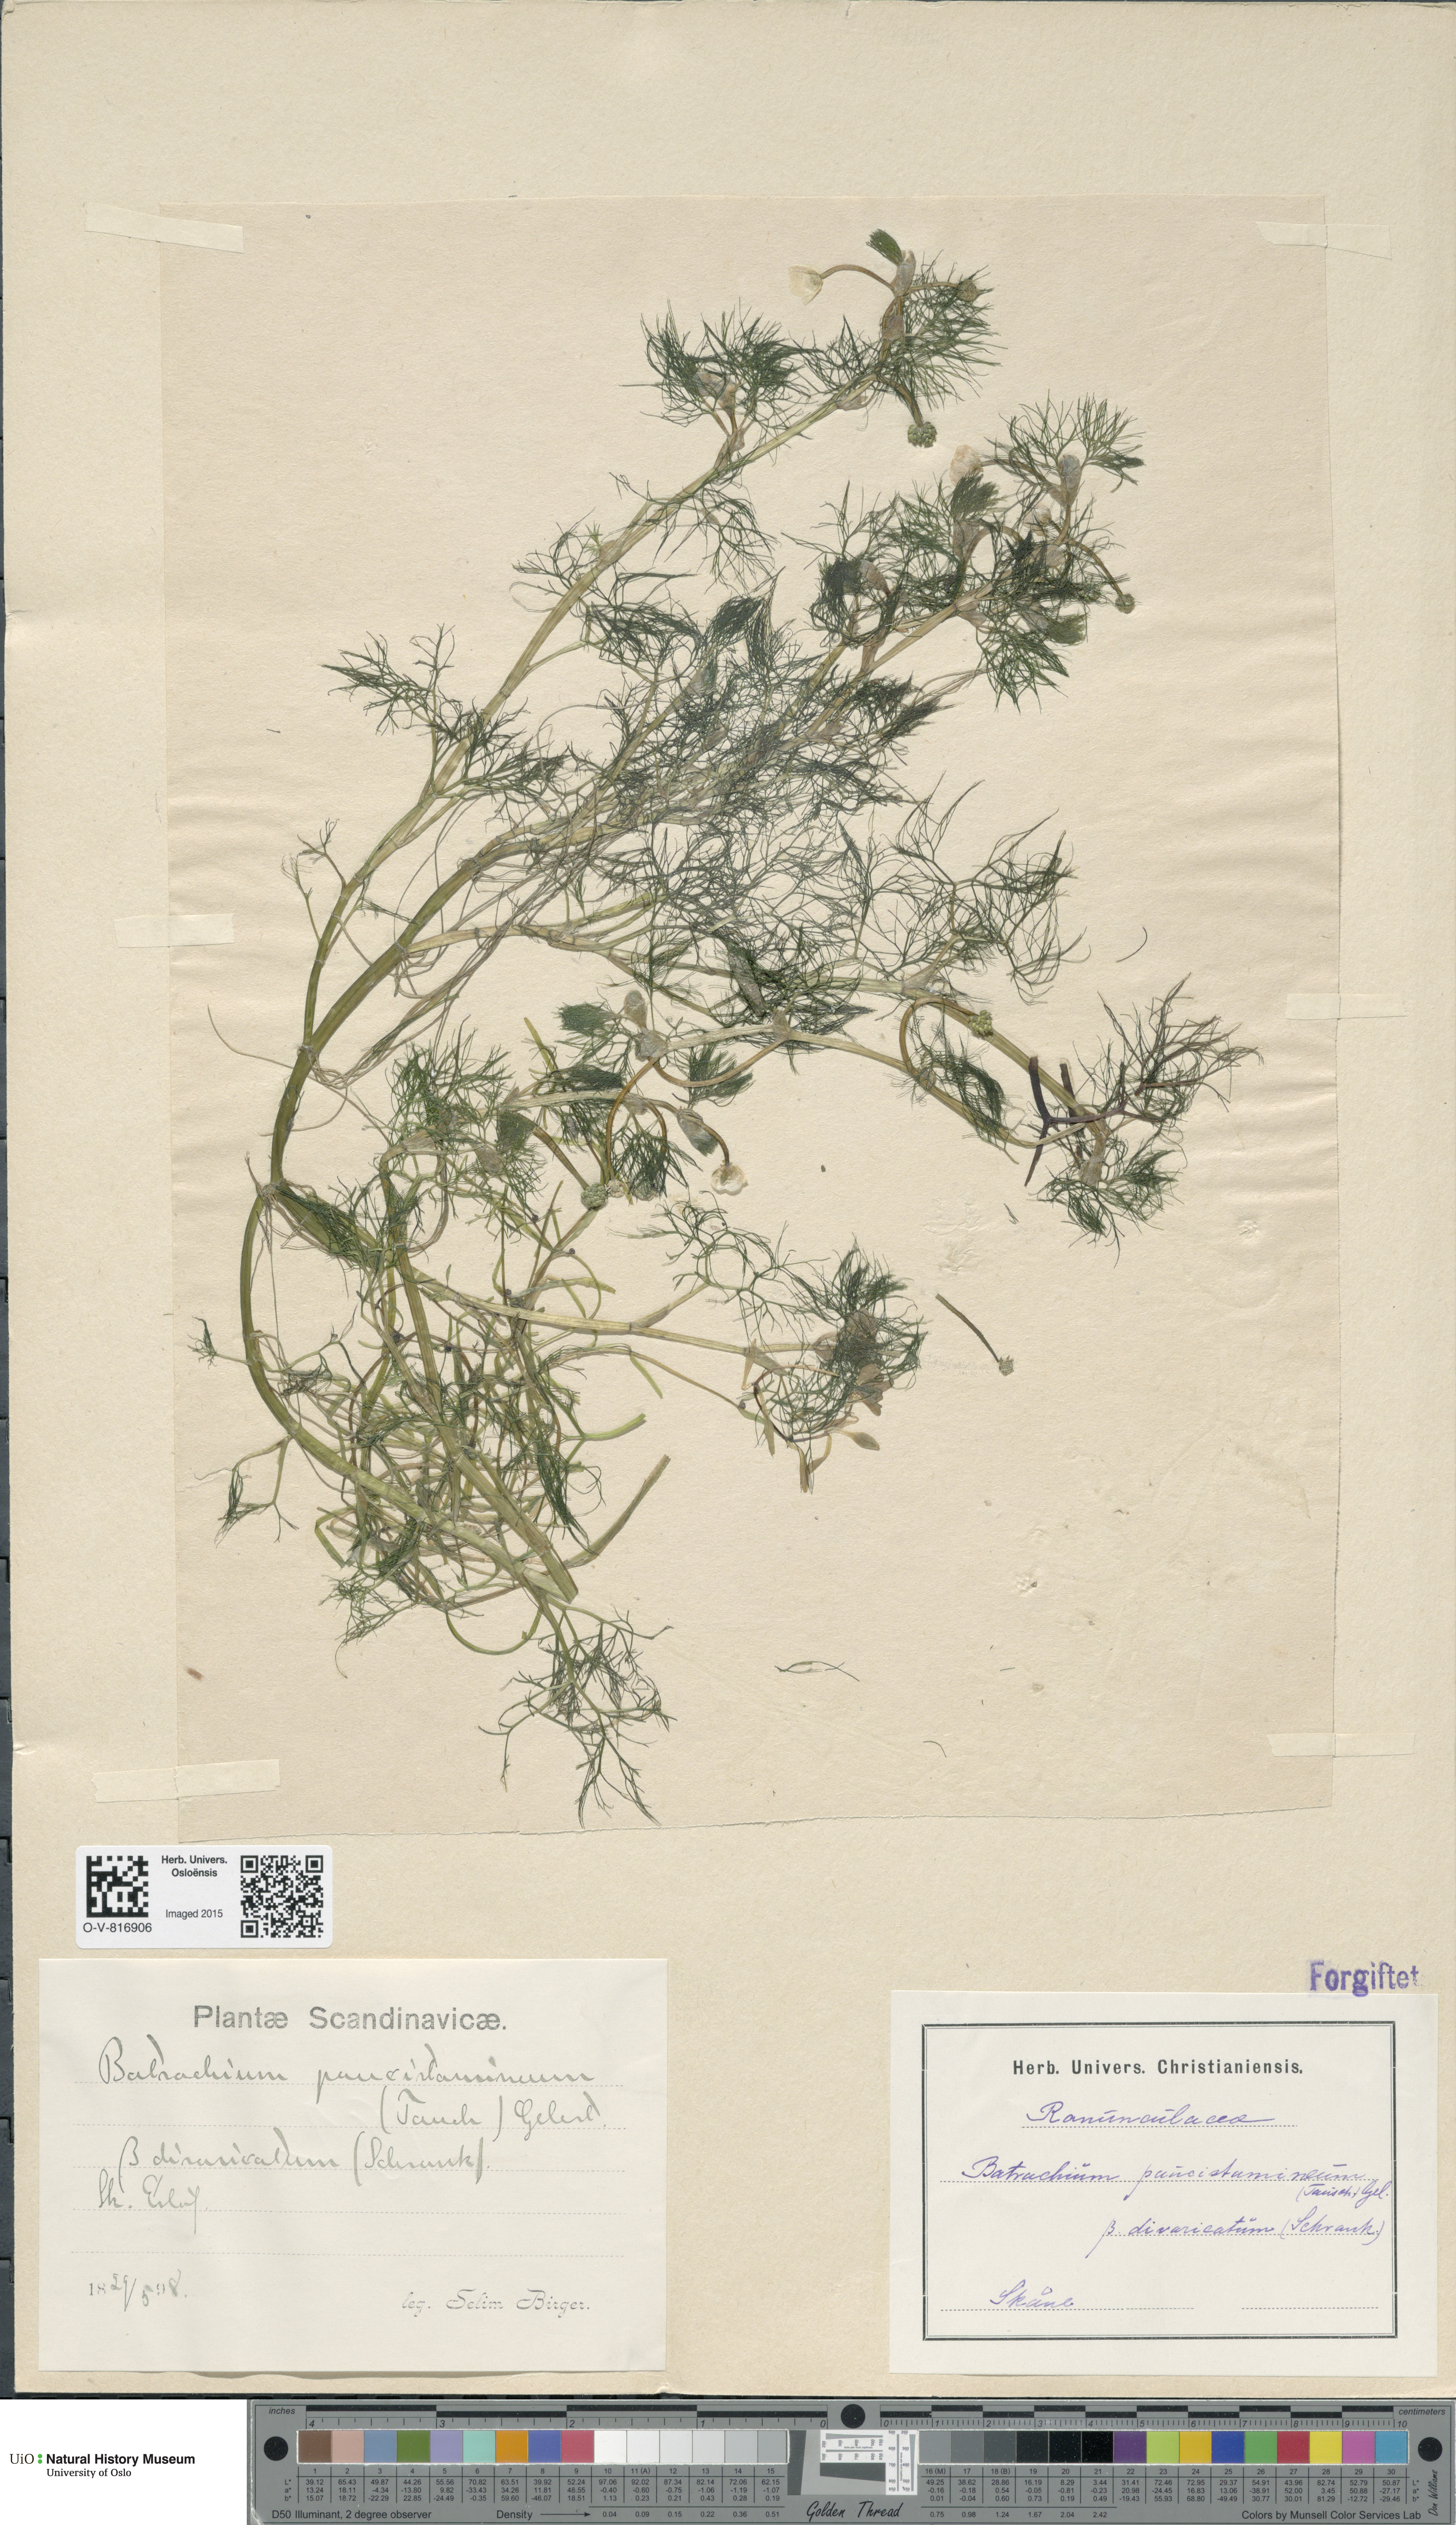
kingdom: Plantae
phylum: Tracheophyta
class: Magnoliopsida
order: Ranunculales
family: Ranunculaceae
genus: Ranunculus
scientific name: Ranunculus trichophyllus
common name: Thread-leaved water-crowfoot
